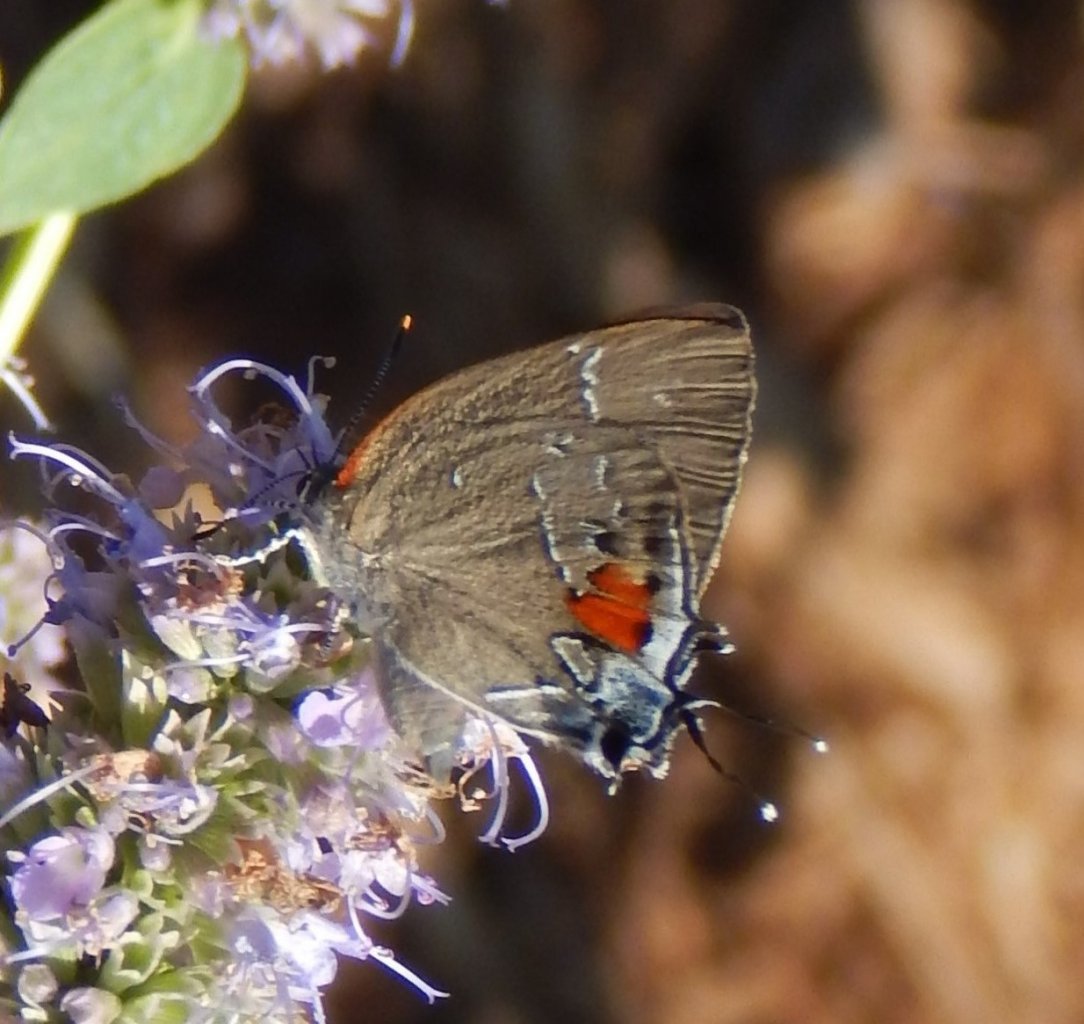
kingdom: Animalia
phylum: Arthropoda
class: Insecta
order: Lepidoptera
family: Lycaenidae
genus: Parrhasius
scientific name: Parrhasius
